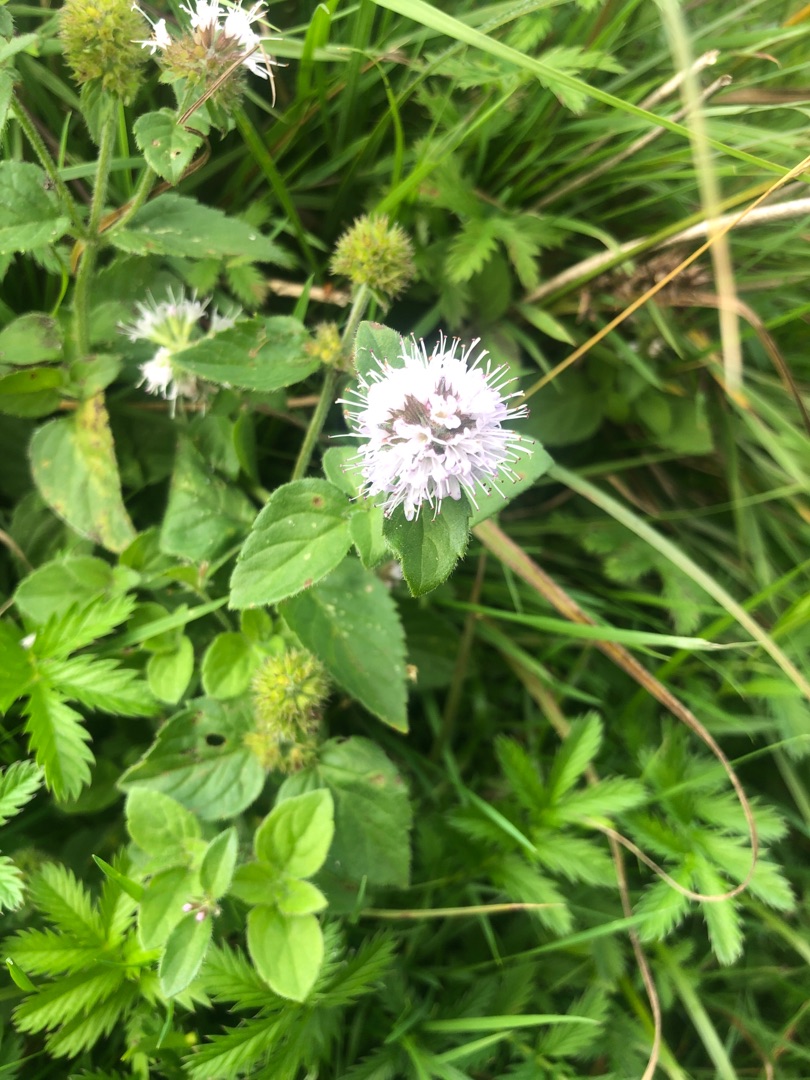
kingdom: Plantae
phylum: Tracheophyta
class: Magnoliopsida
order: Lamiales
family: Lamiaceae
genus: Mentha
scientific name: Mentha aquatica
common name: Vand-mynte
